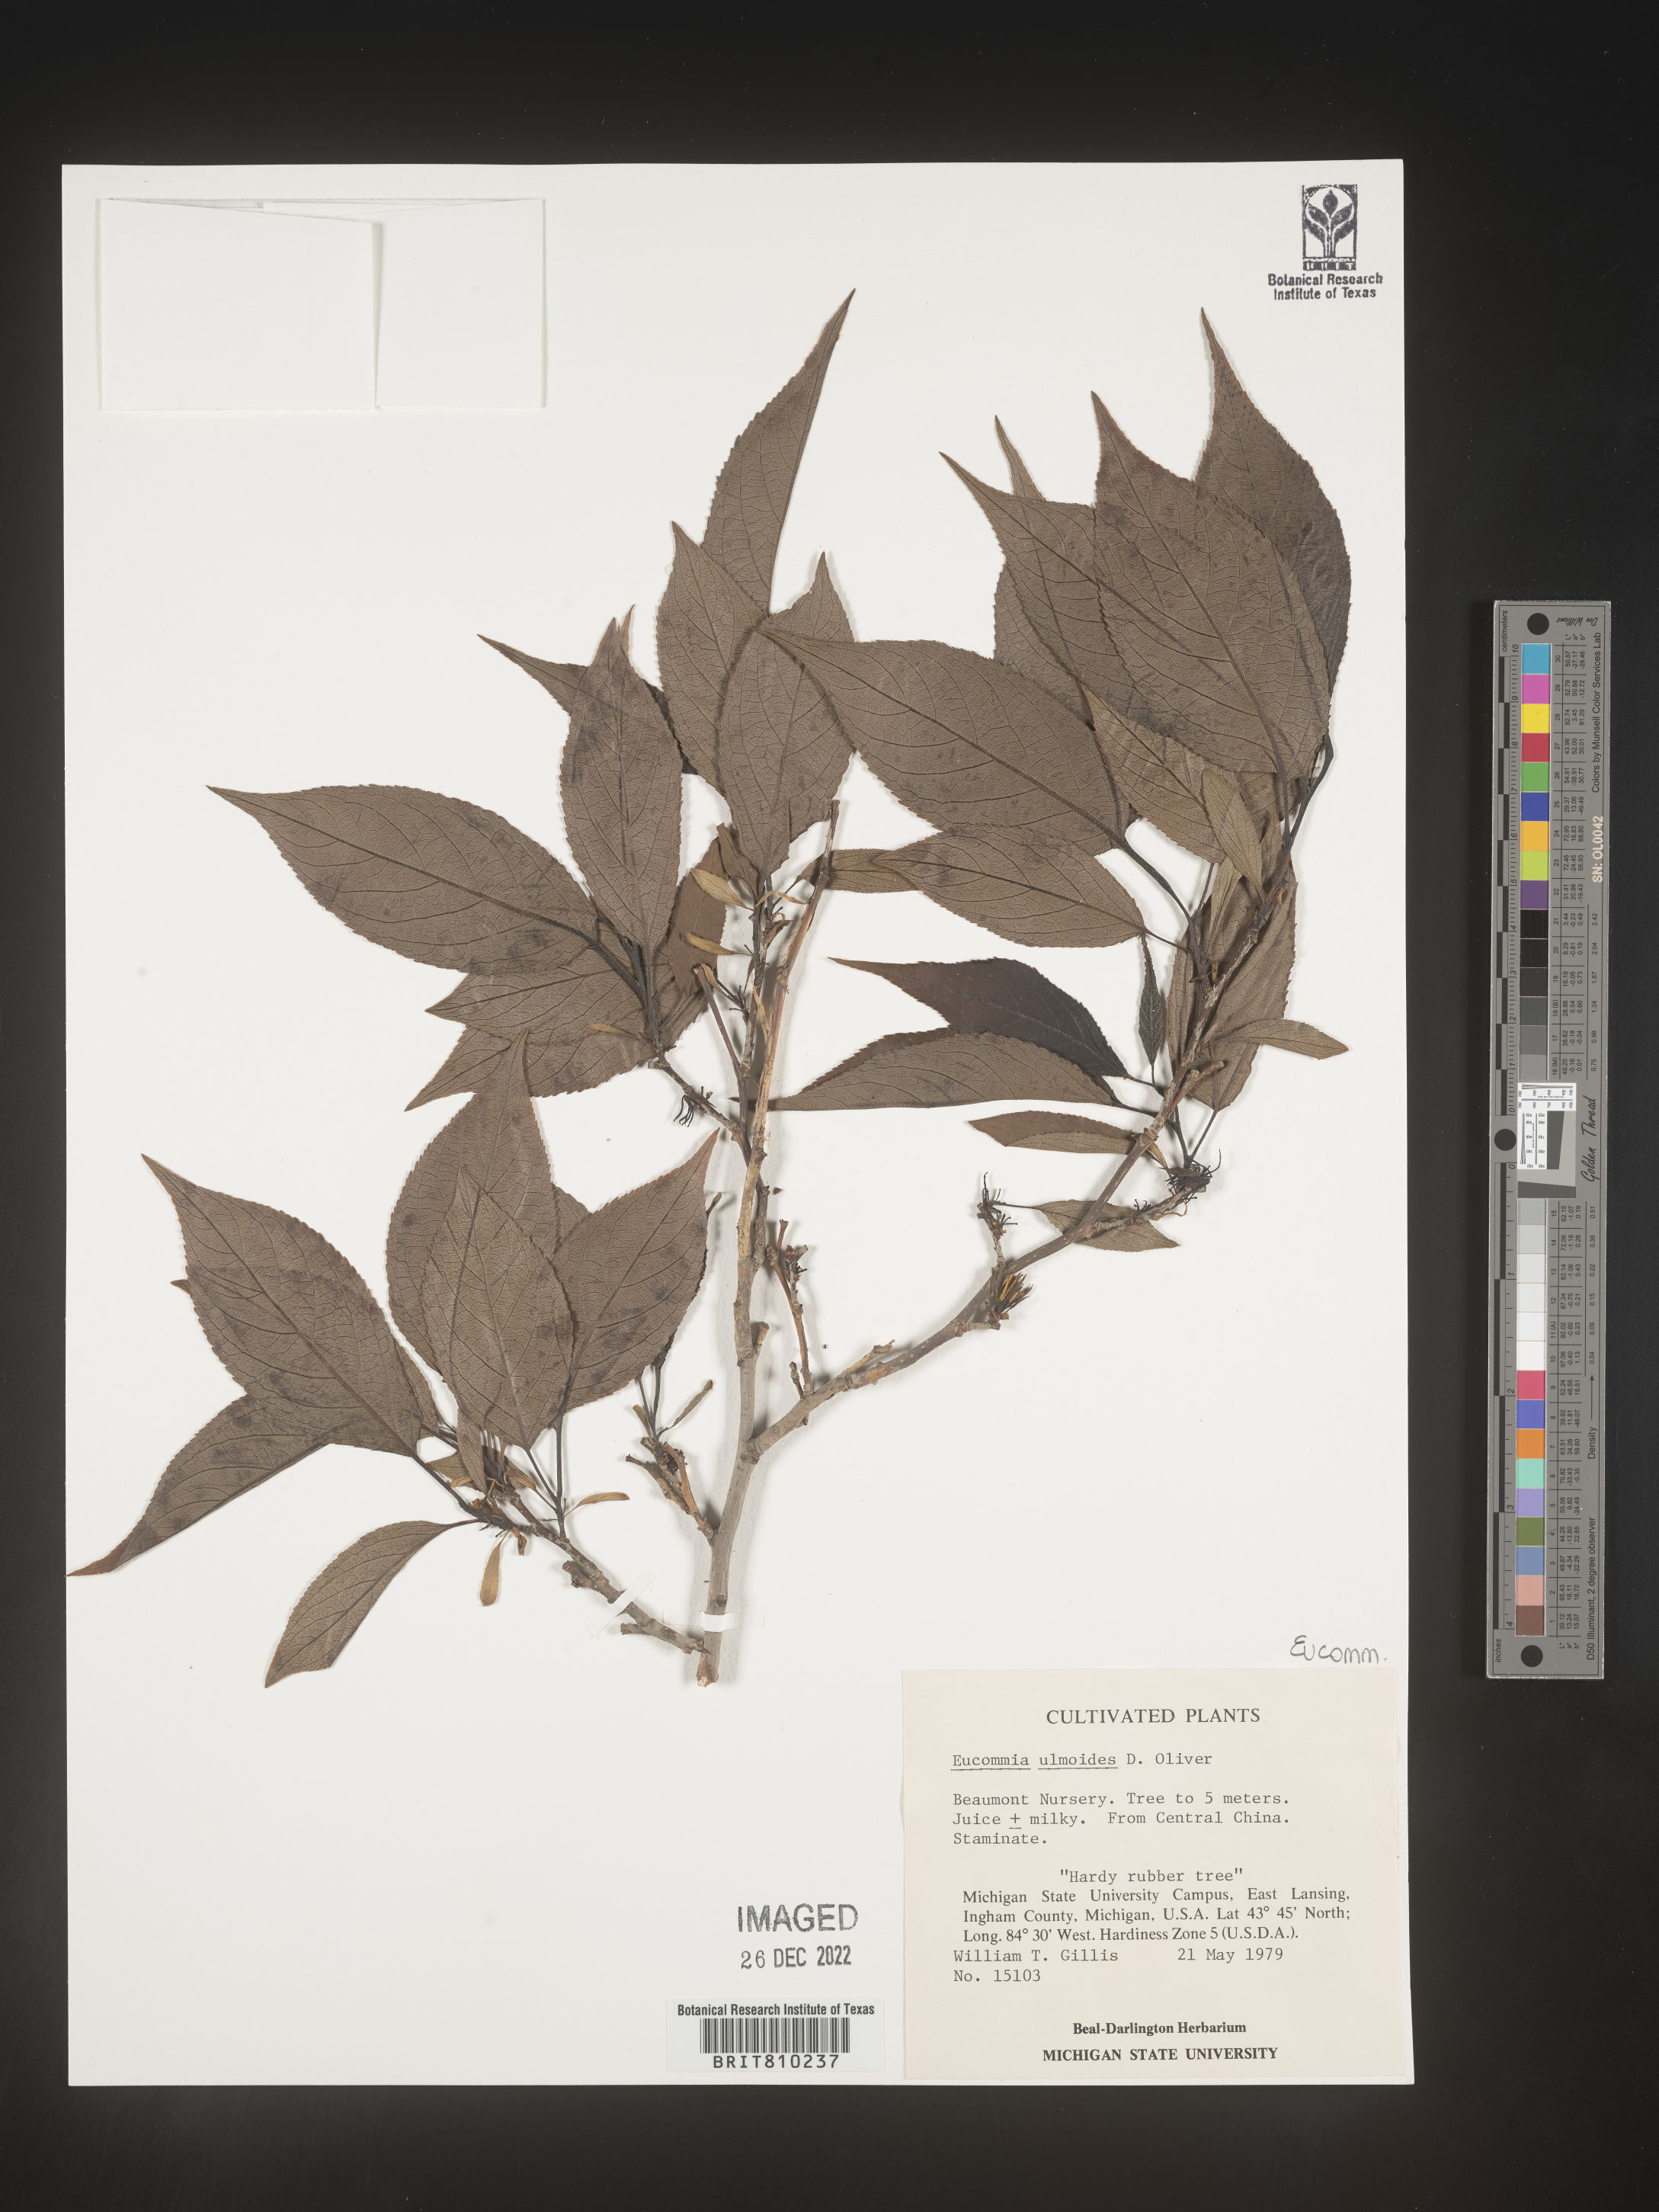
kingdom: Plantae
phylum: Tracheophyta
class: Magnoliopsida
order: Garryales
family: Eucommiaceae
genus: Eucommia
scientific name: Eucommia
